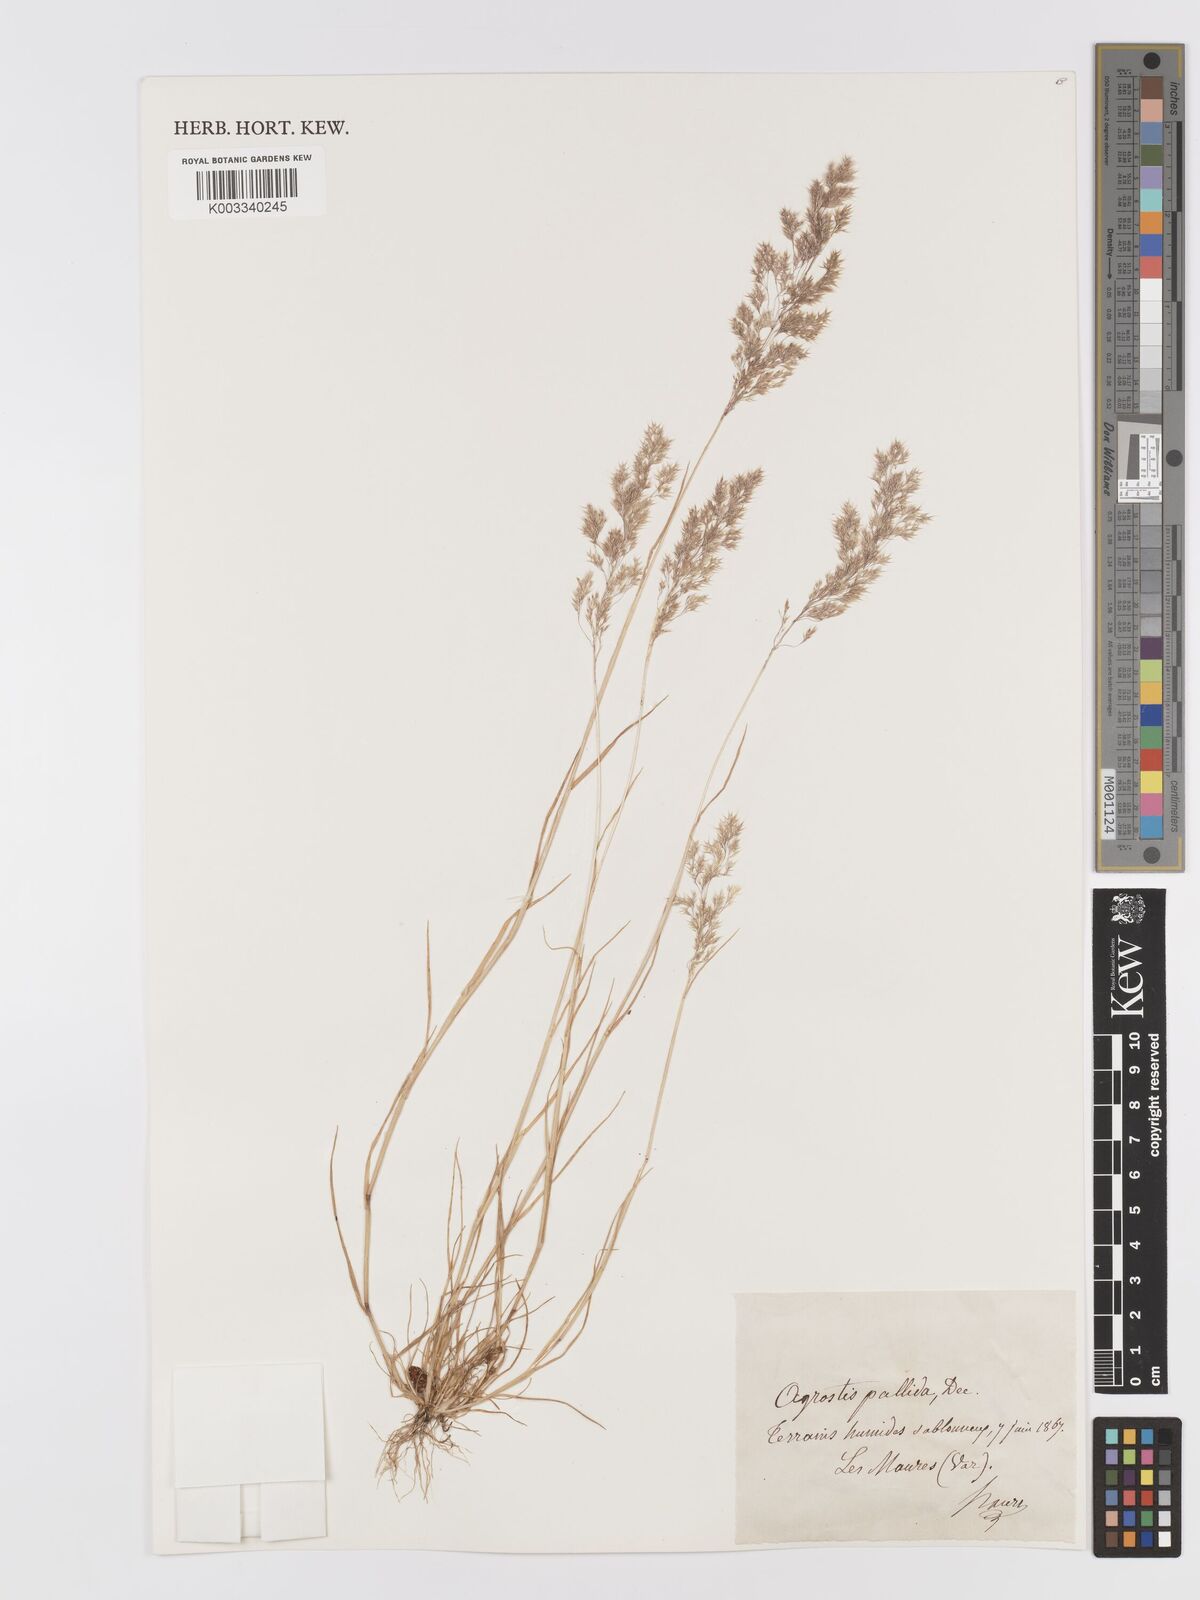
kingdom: Plantae
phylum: Tracheophyta
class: Liliopsida
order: Poales
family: Poaceae
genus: Agrostis
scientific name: Agrostis pourretii
